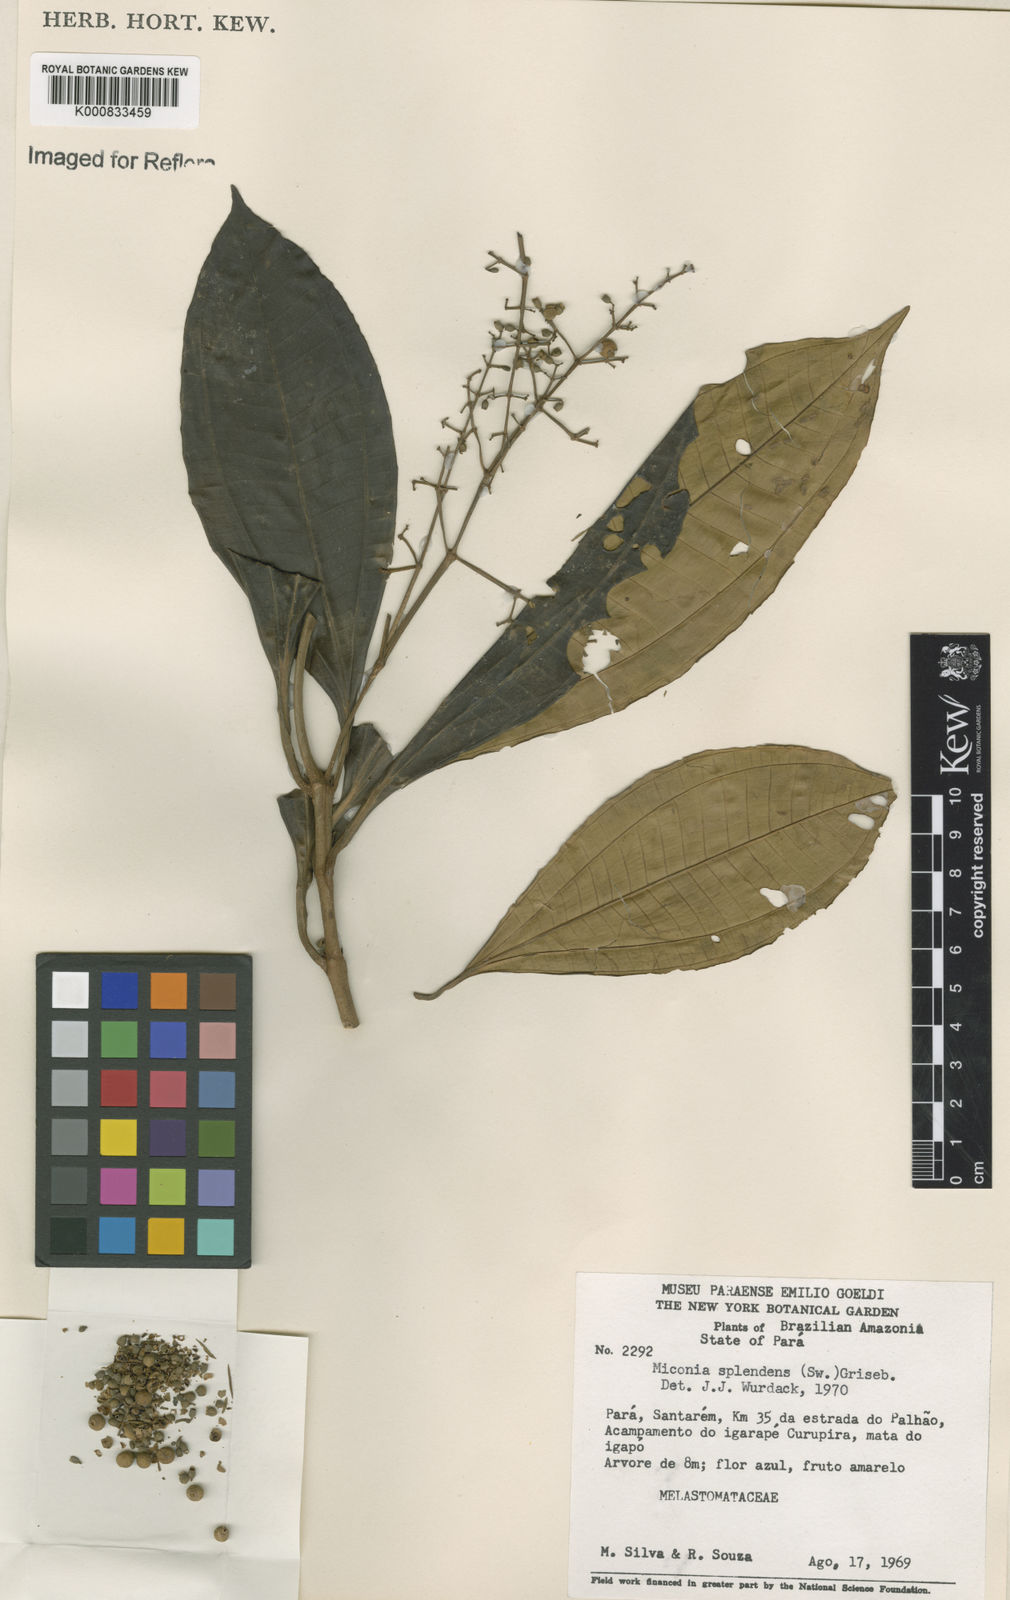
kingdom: Plantae
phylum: Tracheophyta
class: Magnoliopsida
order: Myrtales
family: Melastomataceae
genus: Miconia
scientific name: Miconia splendens
